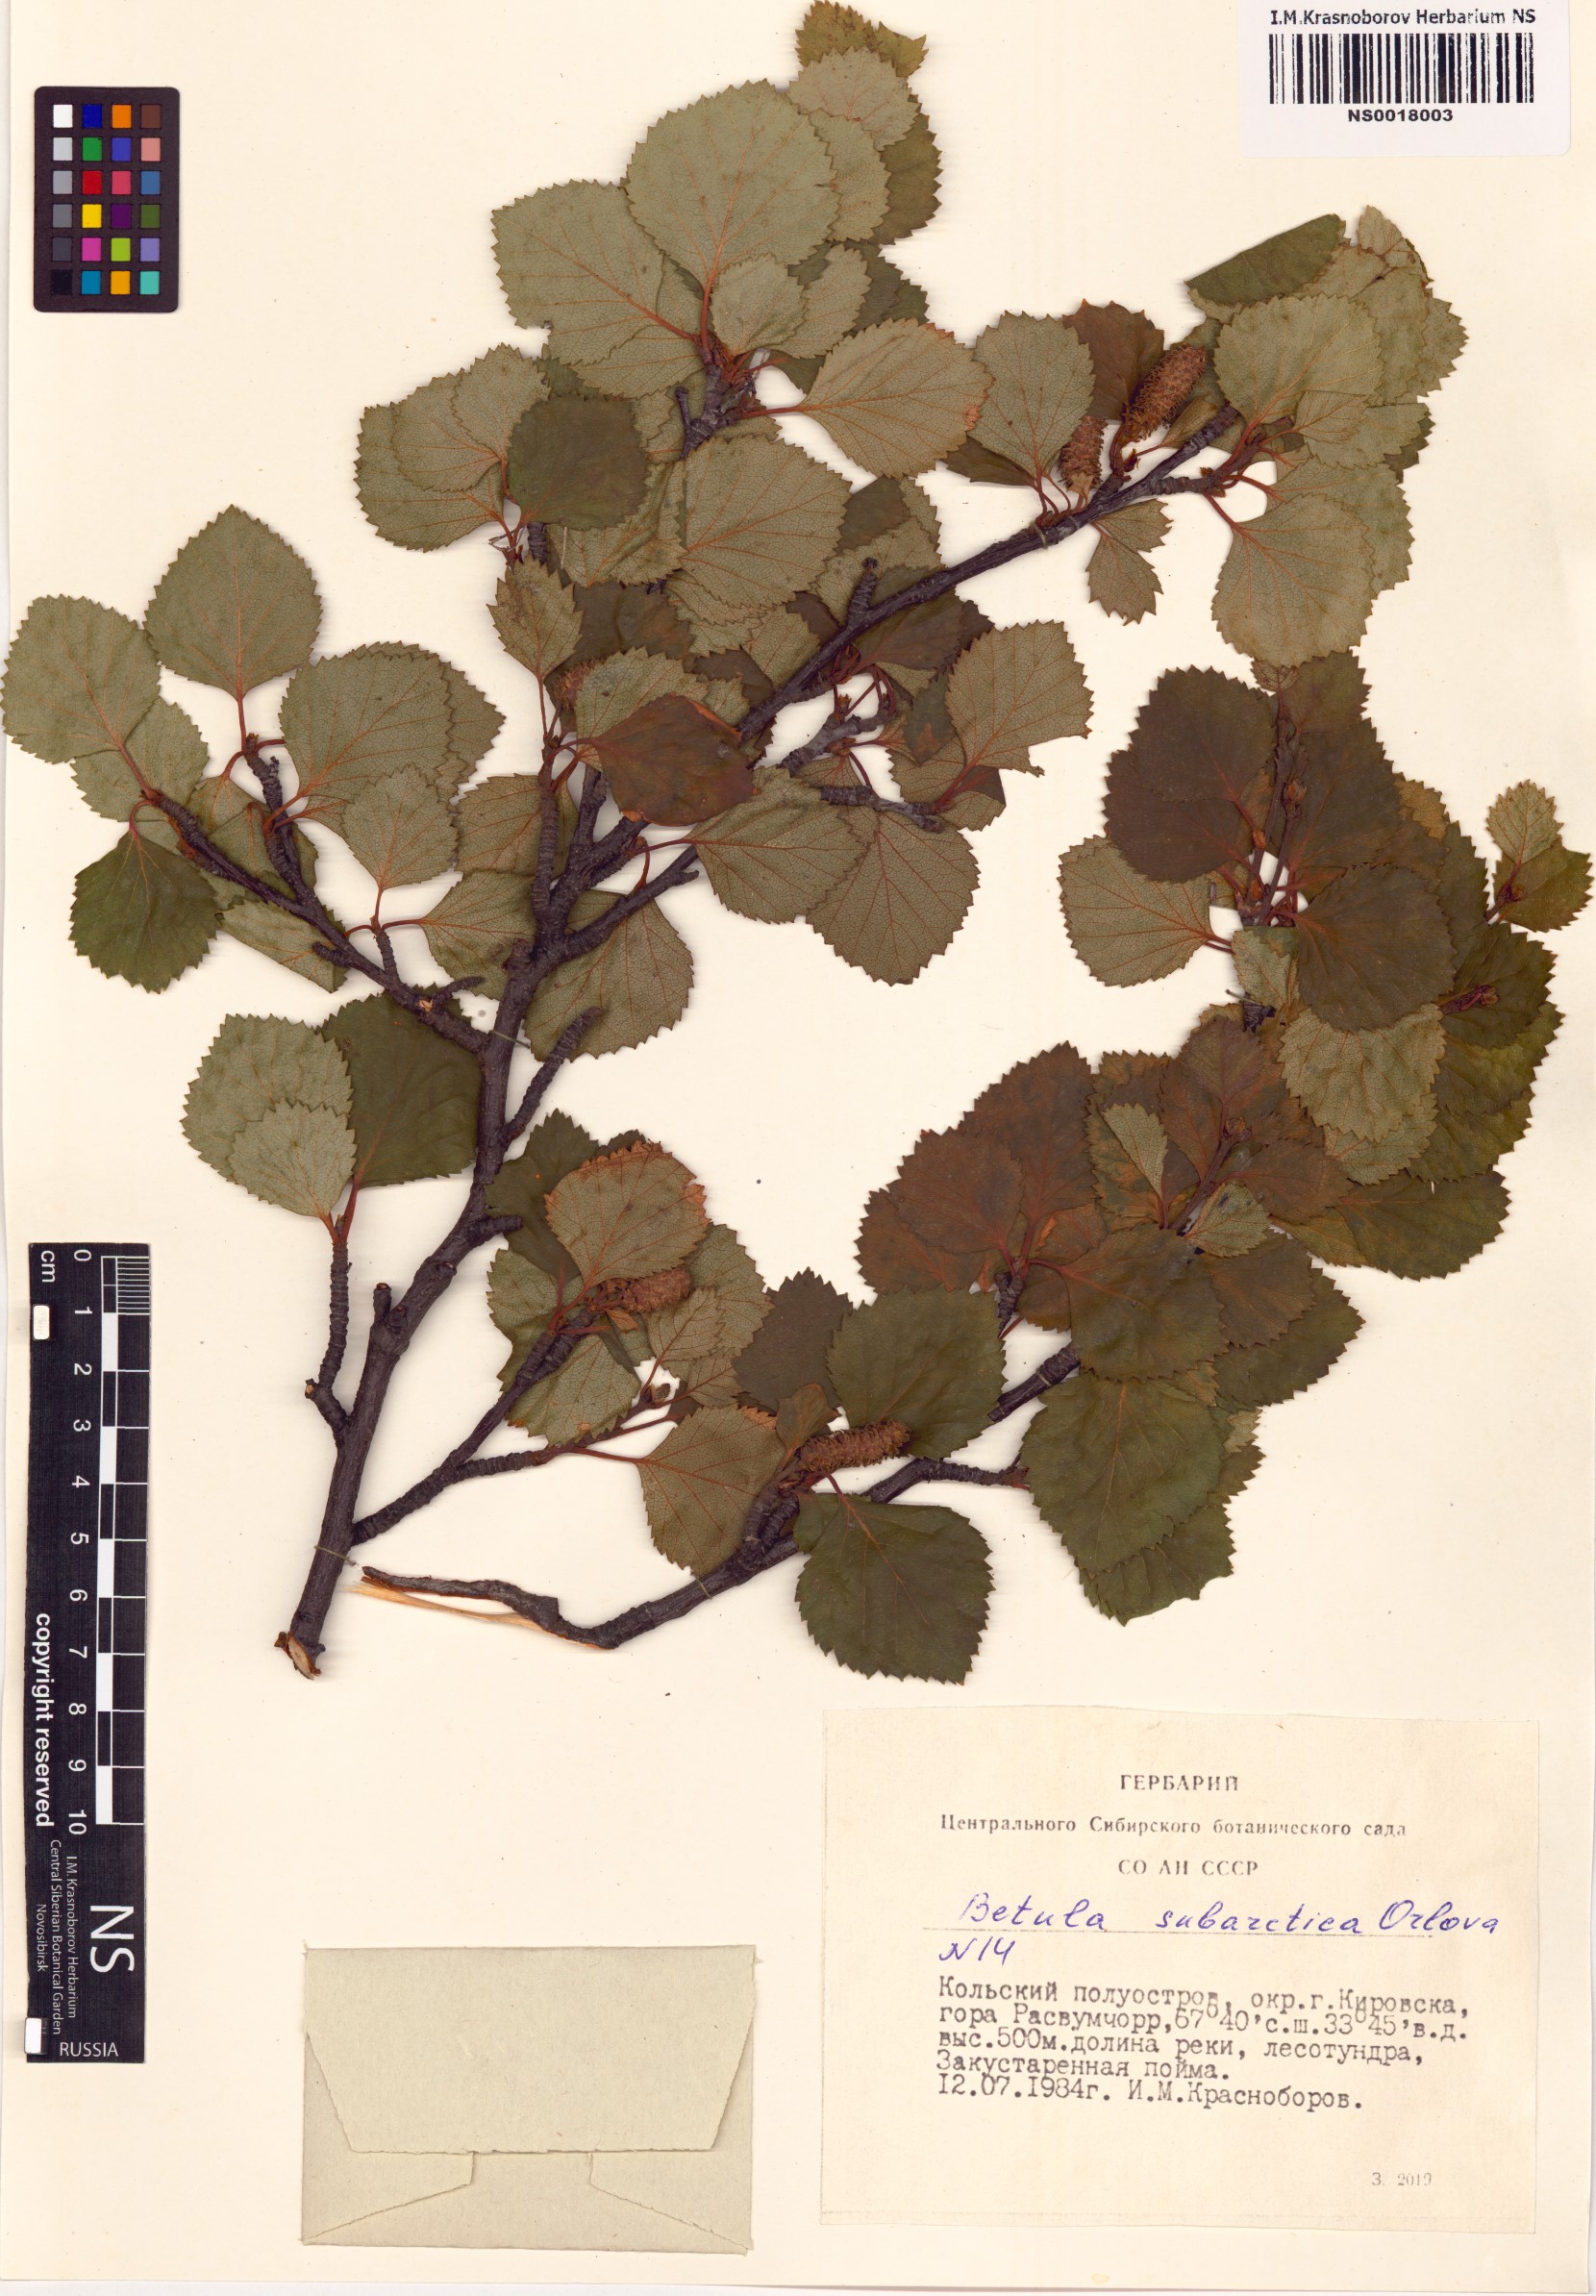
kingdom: Plantae
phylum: Tracheophyta
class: Magnoliopsida
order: Fagales
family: Betulaceae
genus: Betula
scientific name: Betula pubescens
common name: Downy birch
